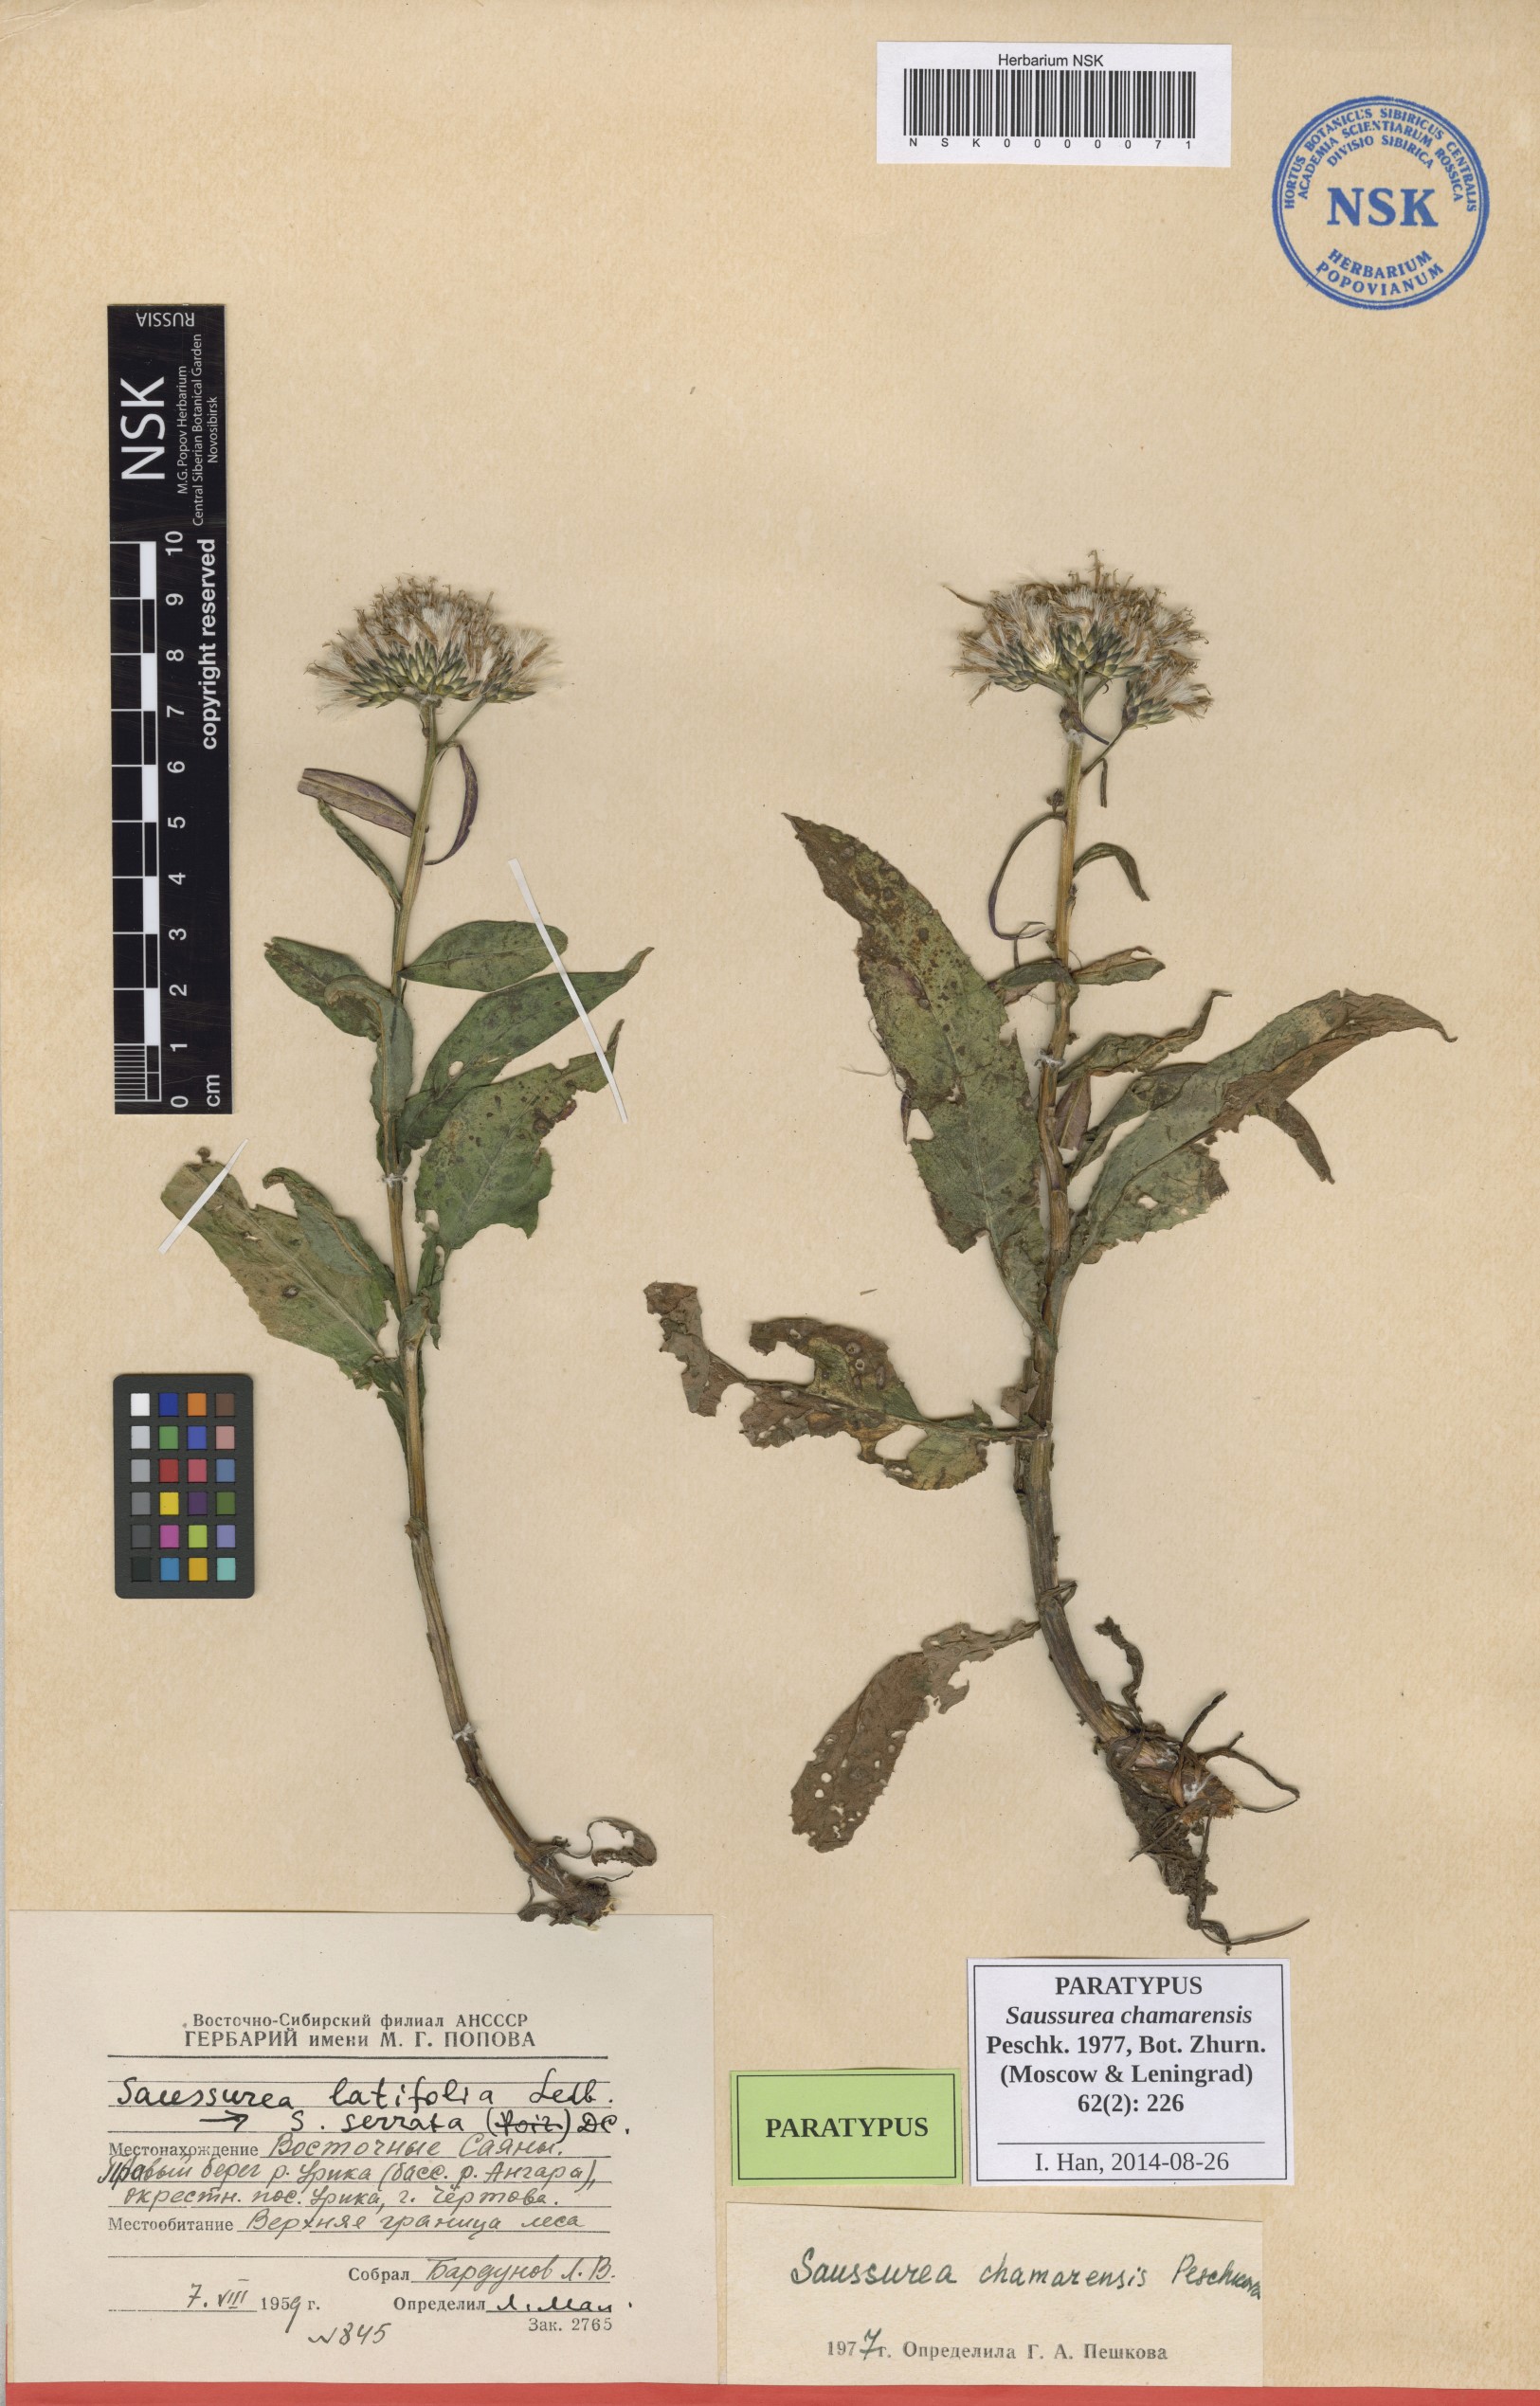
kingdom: Plantae
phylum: Tracheophyta
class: Magnoliopsida
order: Asterales
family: Asteraceae
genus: Saussurea
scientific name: Saussurea chamarensis
